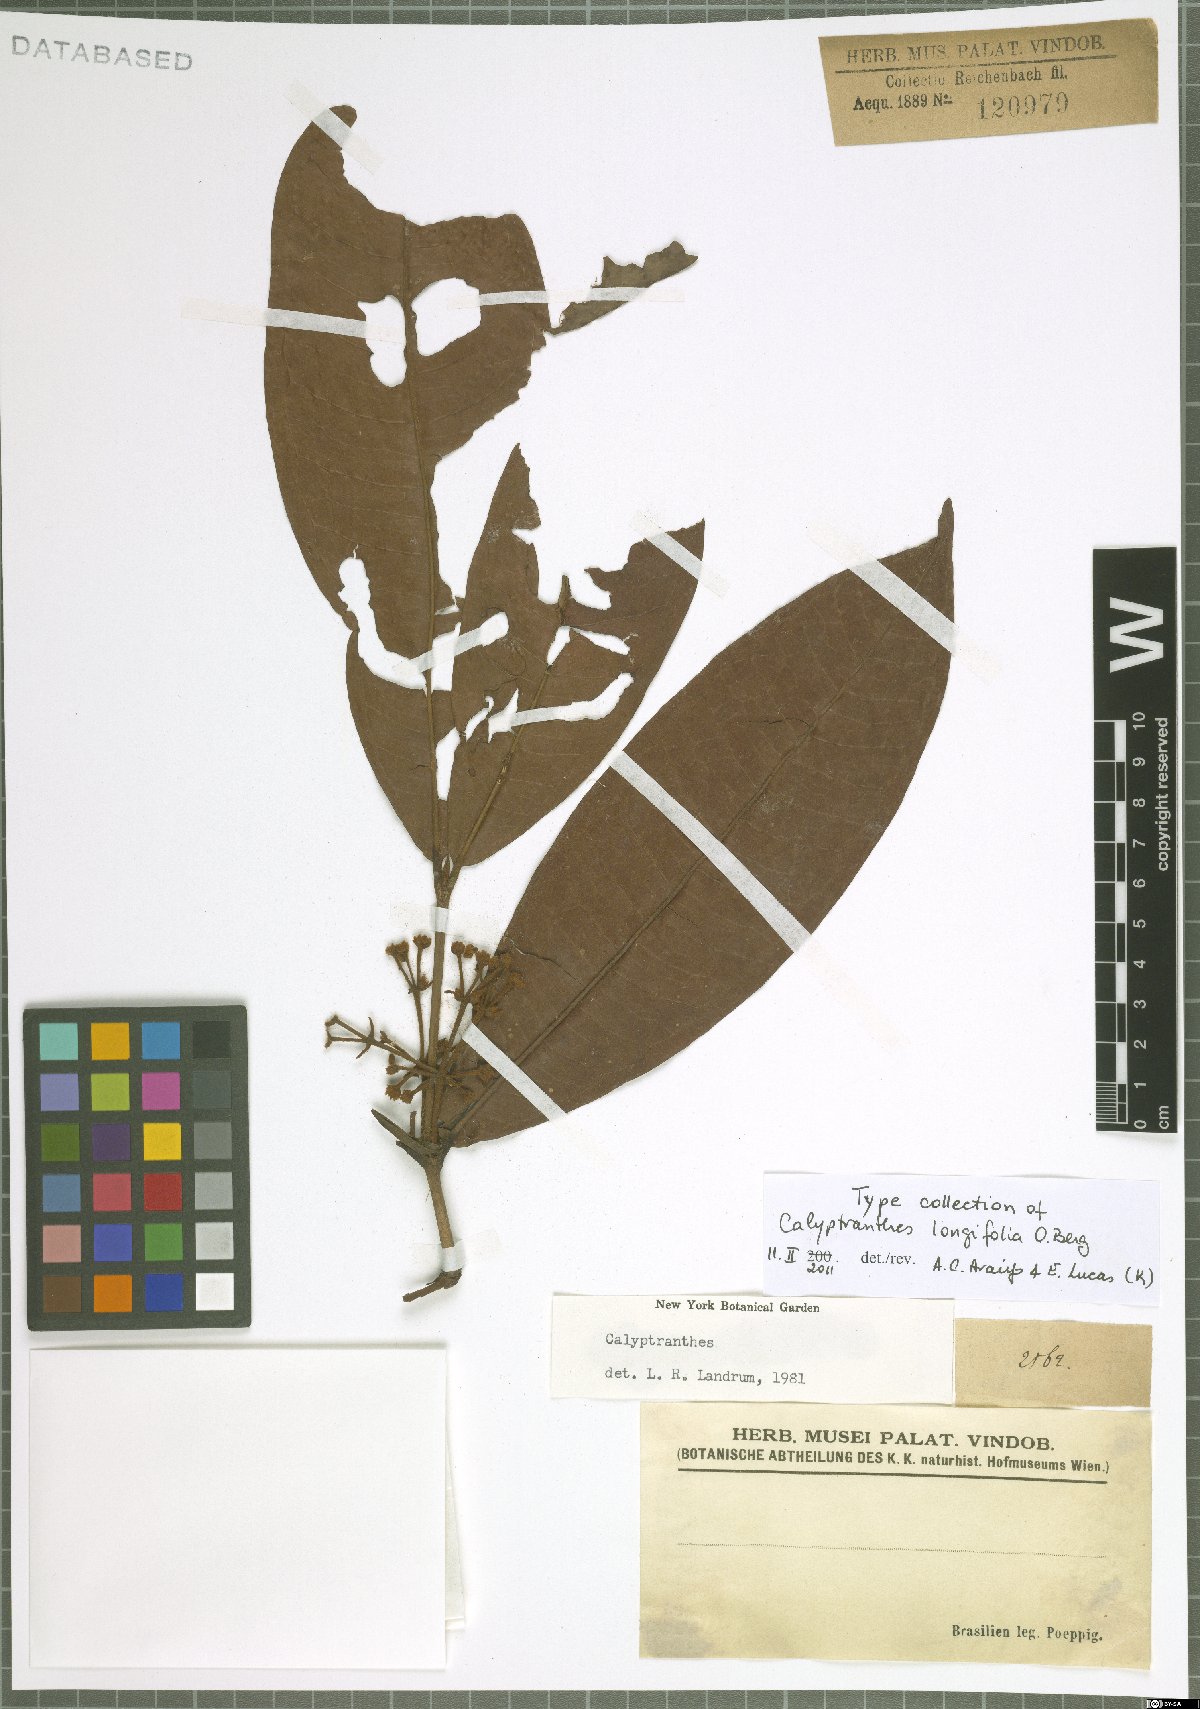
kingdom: Plantae
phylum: Tracheophyta
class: Magnoliopsida
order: Myrtales
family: Myrtaceae
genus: Myrcia
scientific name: Myrcia telephylla
